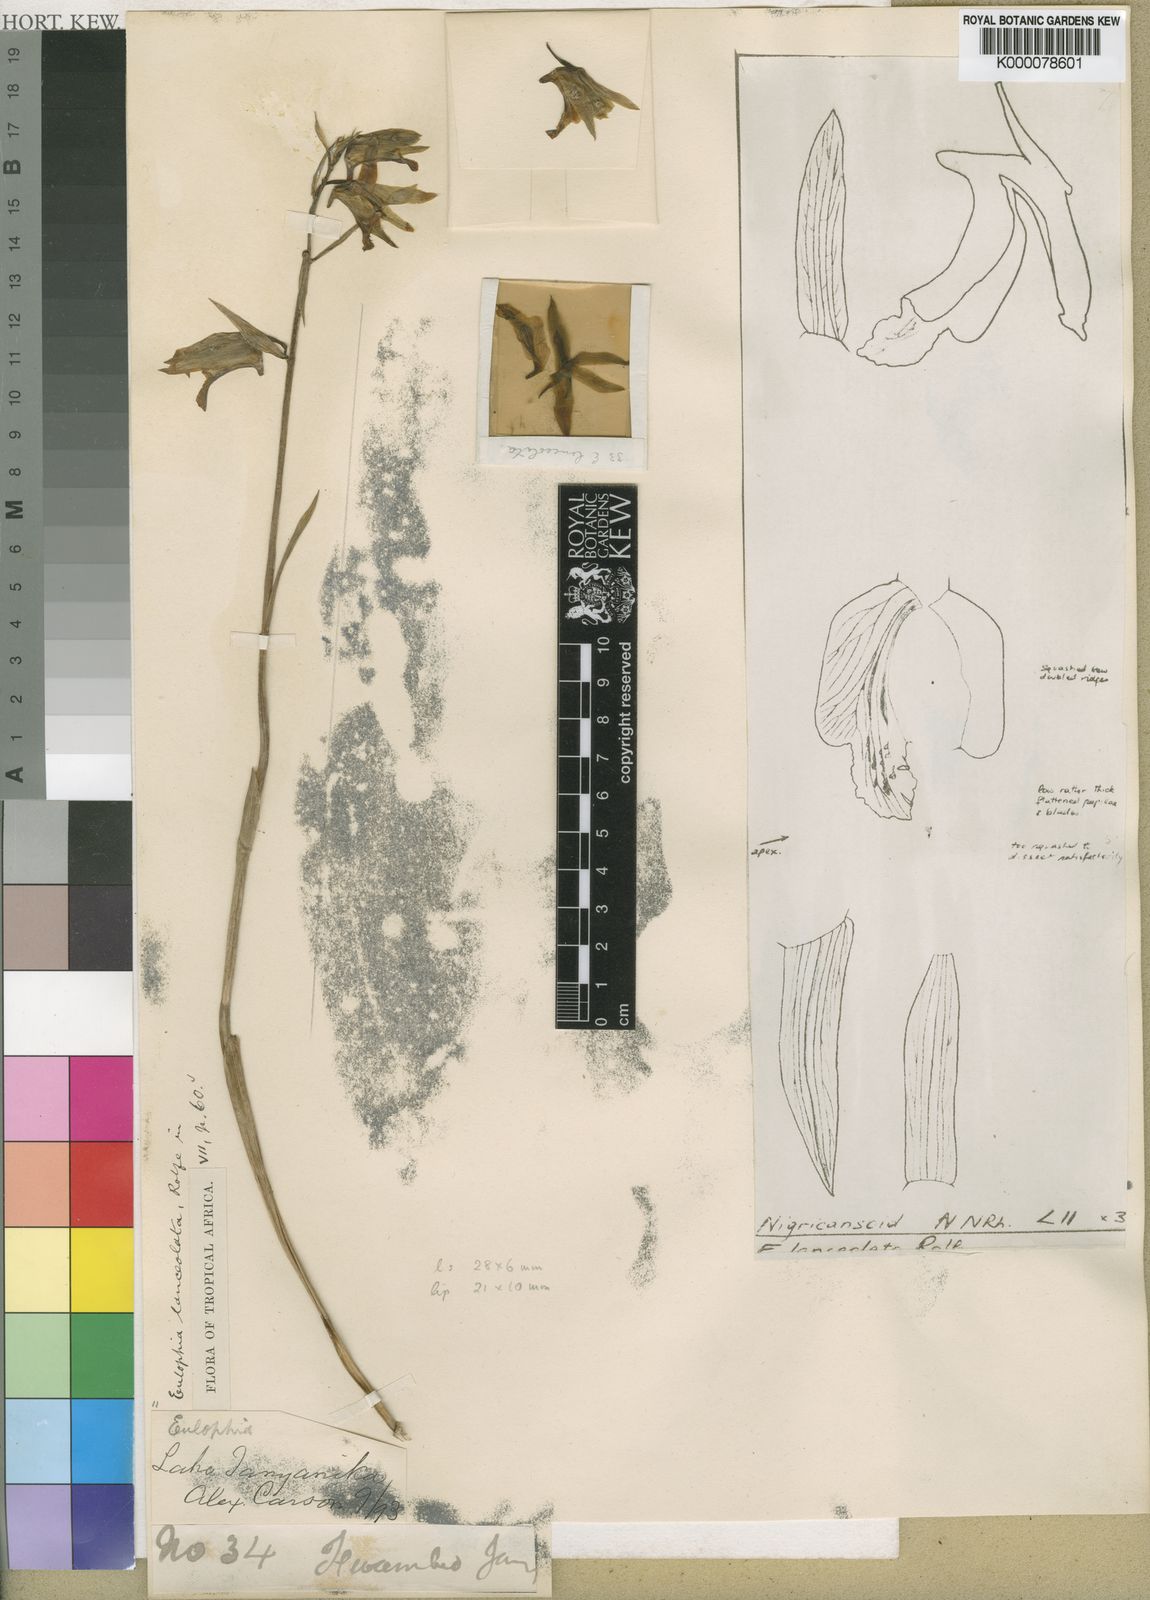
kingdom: Plantae
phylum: Tracheophyta
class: Liliopsida
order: Asparagales
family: Orchidaceae
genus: Eulophia
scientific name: Eulophia adenoglossa
